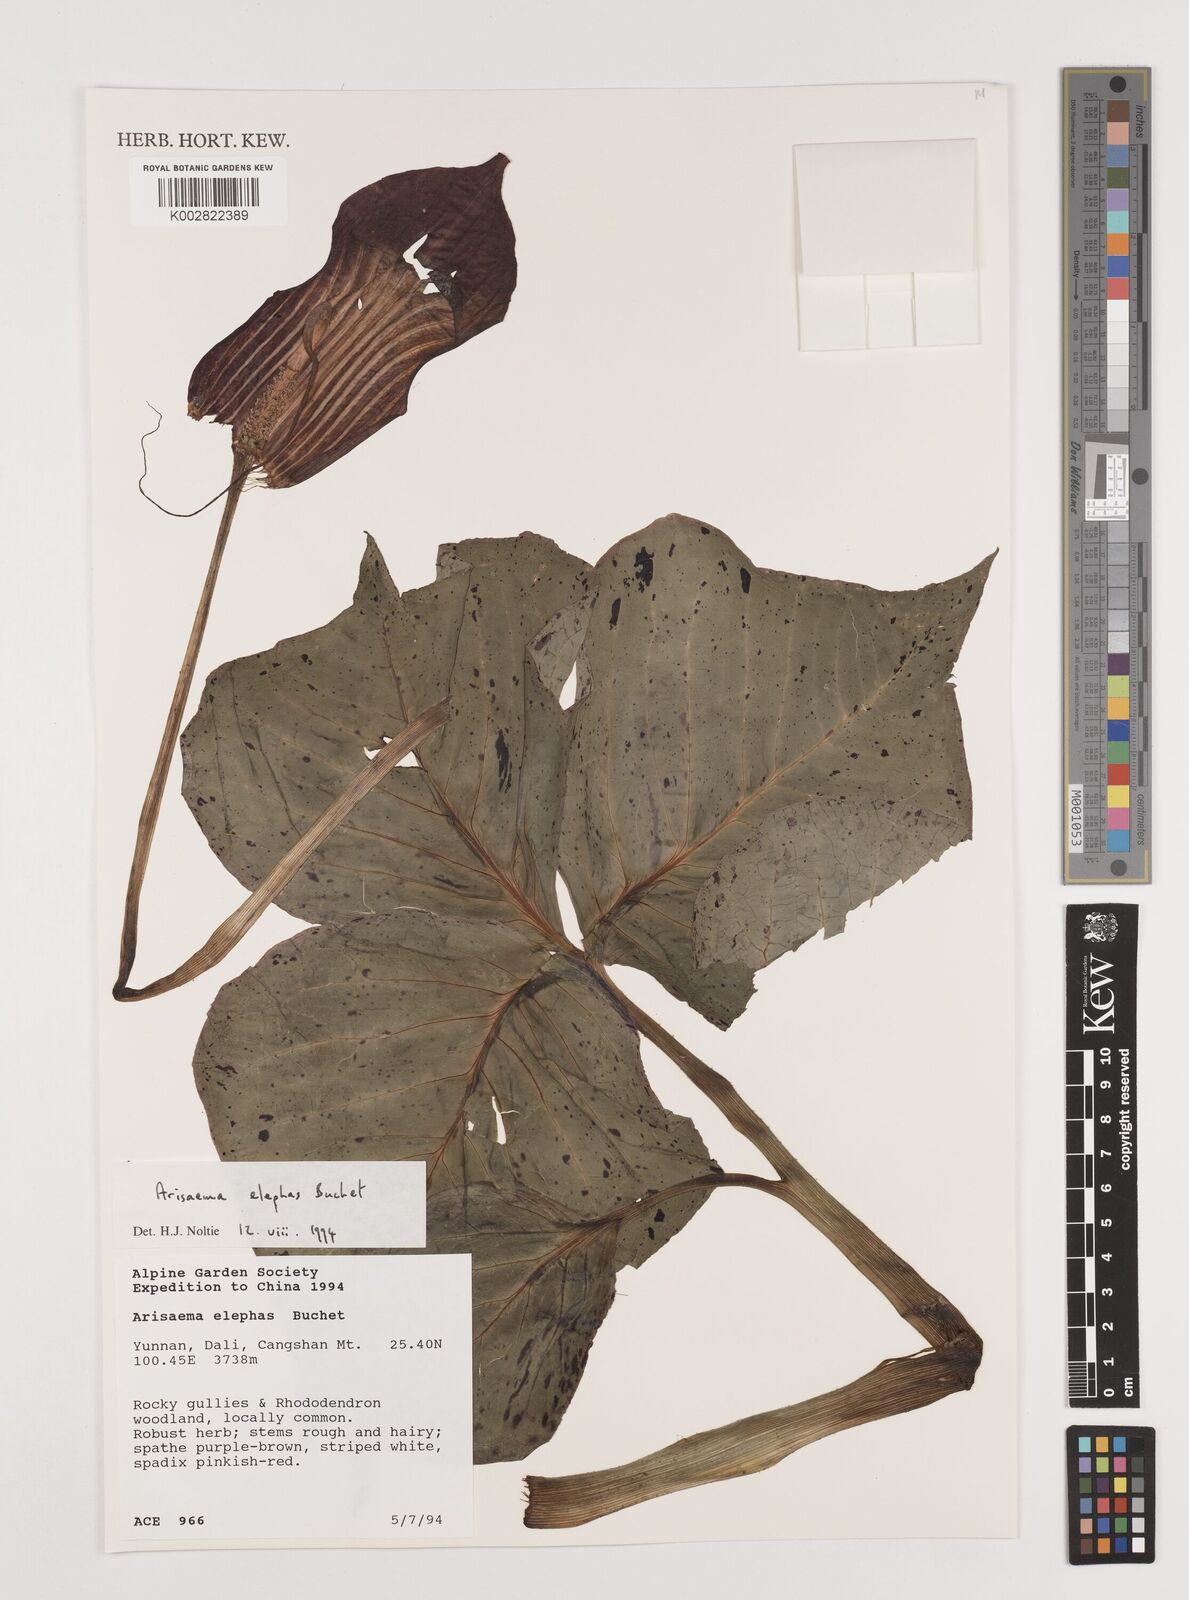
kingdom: Plantae
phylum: Tracheophyta
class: Liliopsida
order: Alismatales
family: Araceae
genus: Arisaema
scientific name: Arisaema elephas
